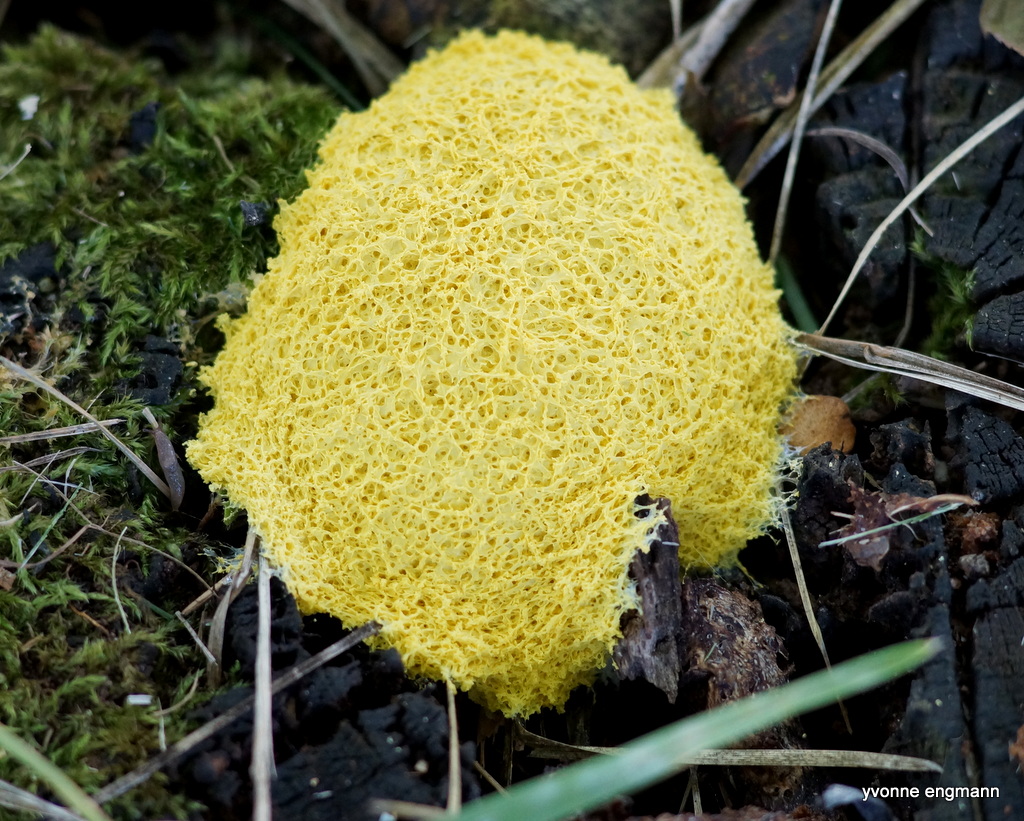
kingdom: Protozoa
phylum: Mycetozoa
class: Myxomycetes
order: Physarales
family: Physaraceae
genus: Fuligo
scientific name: Fuligo septica
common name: gul troldsmør
